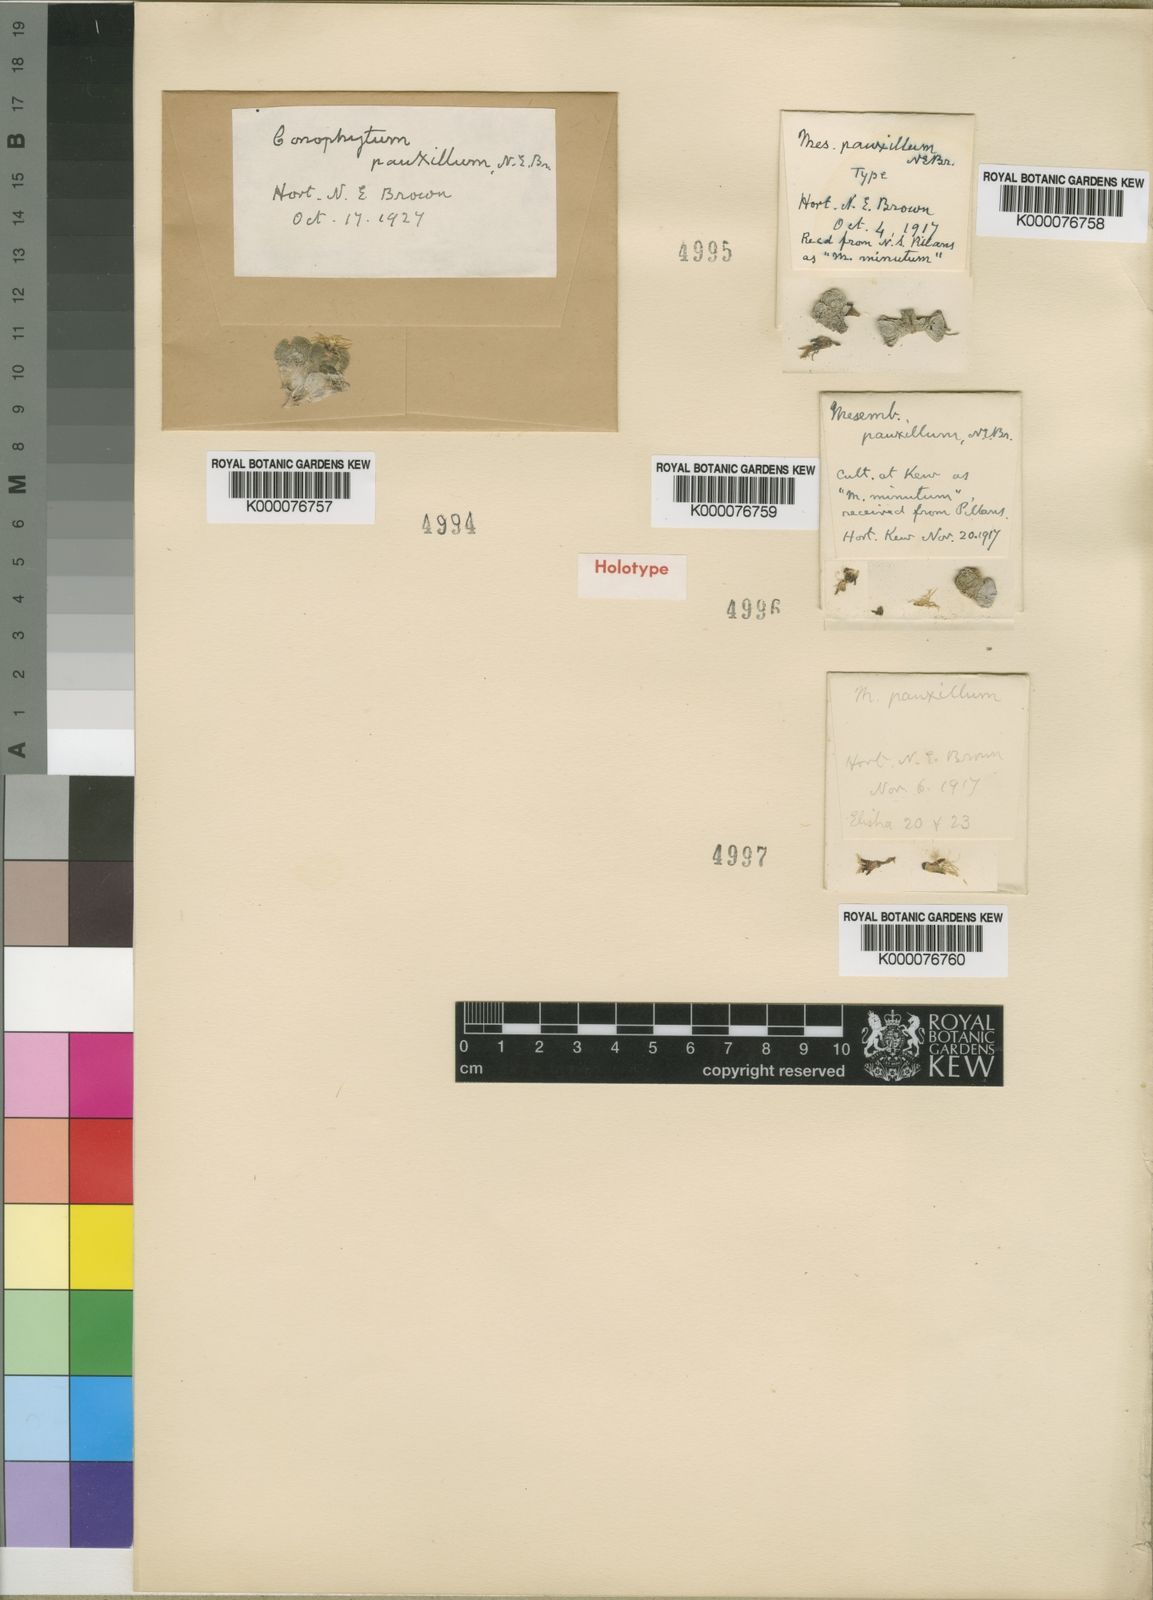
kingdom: Plantae
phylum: Tracheophyta
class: Magnoliopsida
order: Caryophyllales
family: Aizoaceae
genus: Conophytum
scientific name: Conophytum minimum
